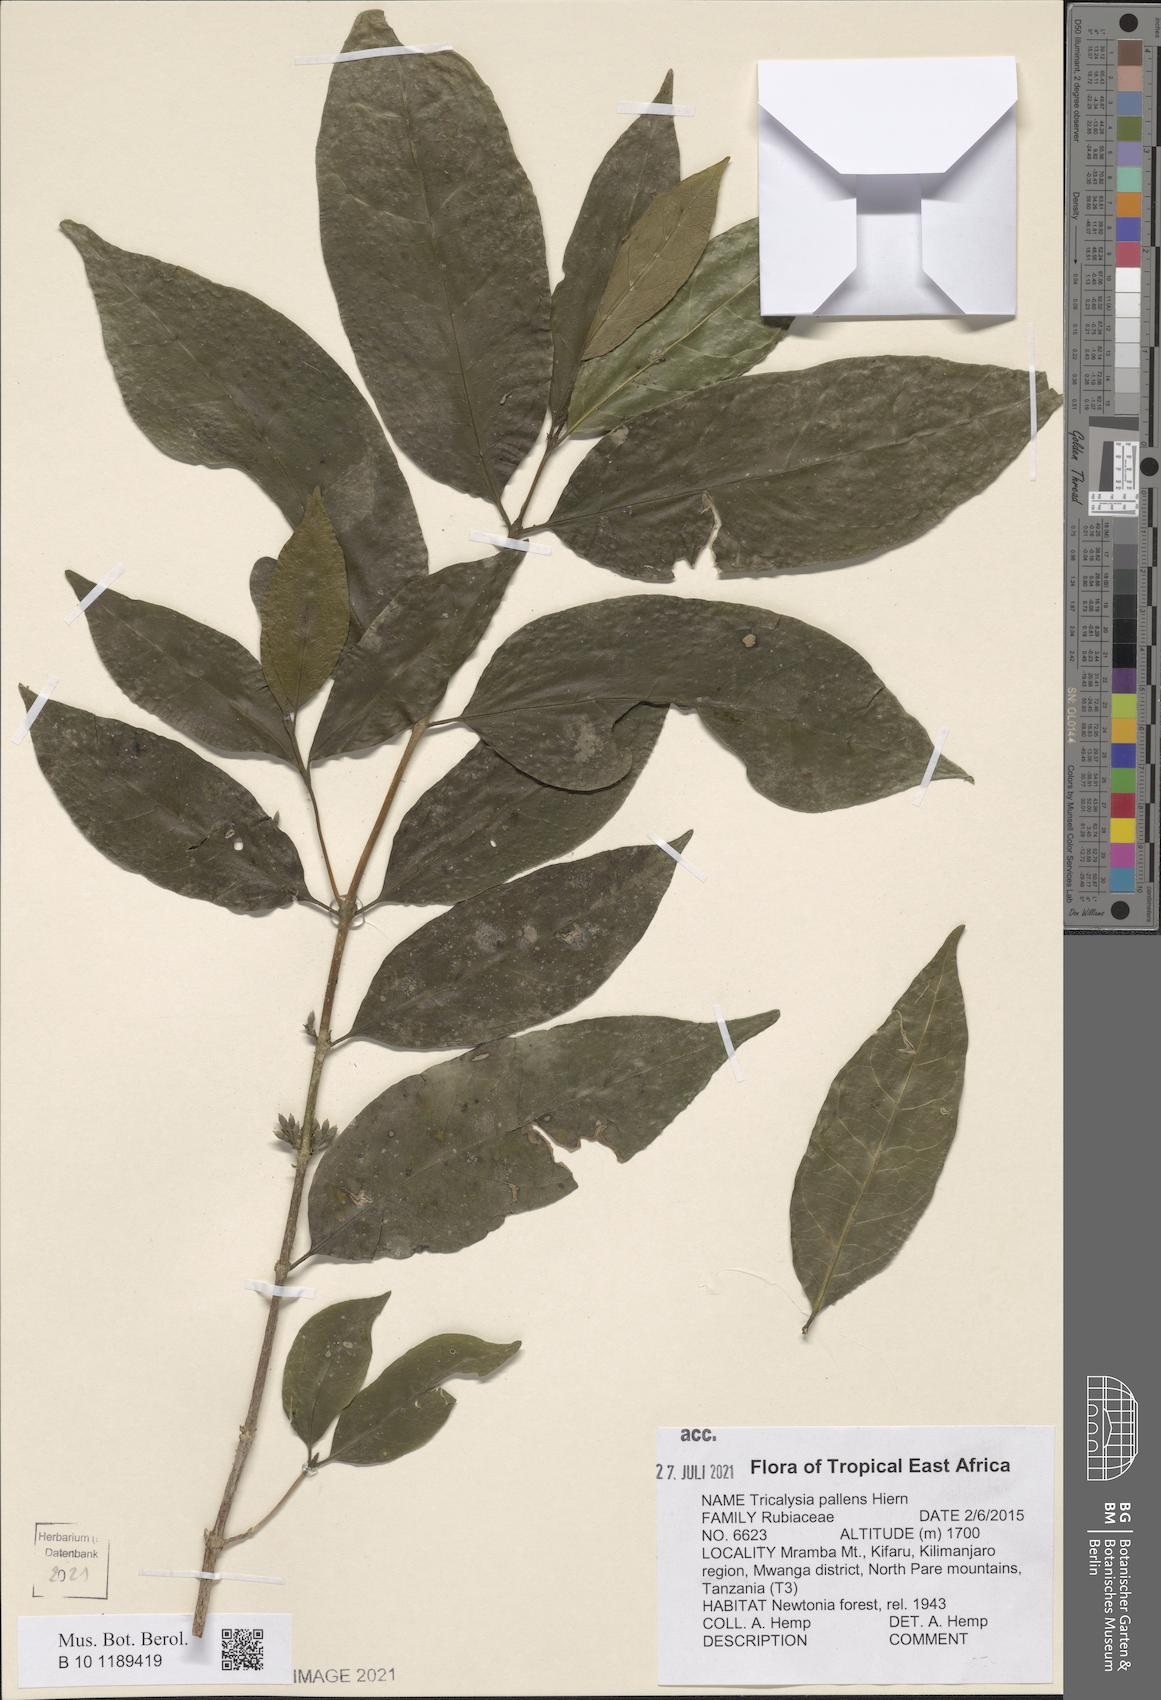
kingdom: Plantae
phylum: Tracheophyta
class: Magnoliopsida
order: Gentianales
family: Rubiaceae
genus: Tricalysia
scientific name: Tricalysia pallens
